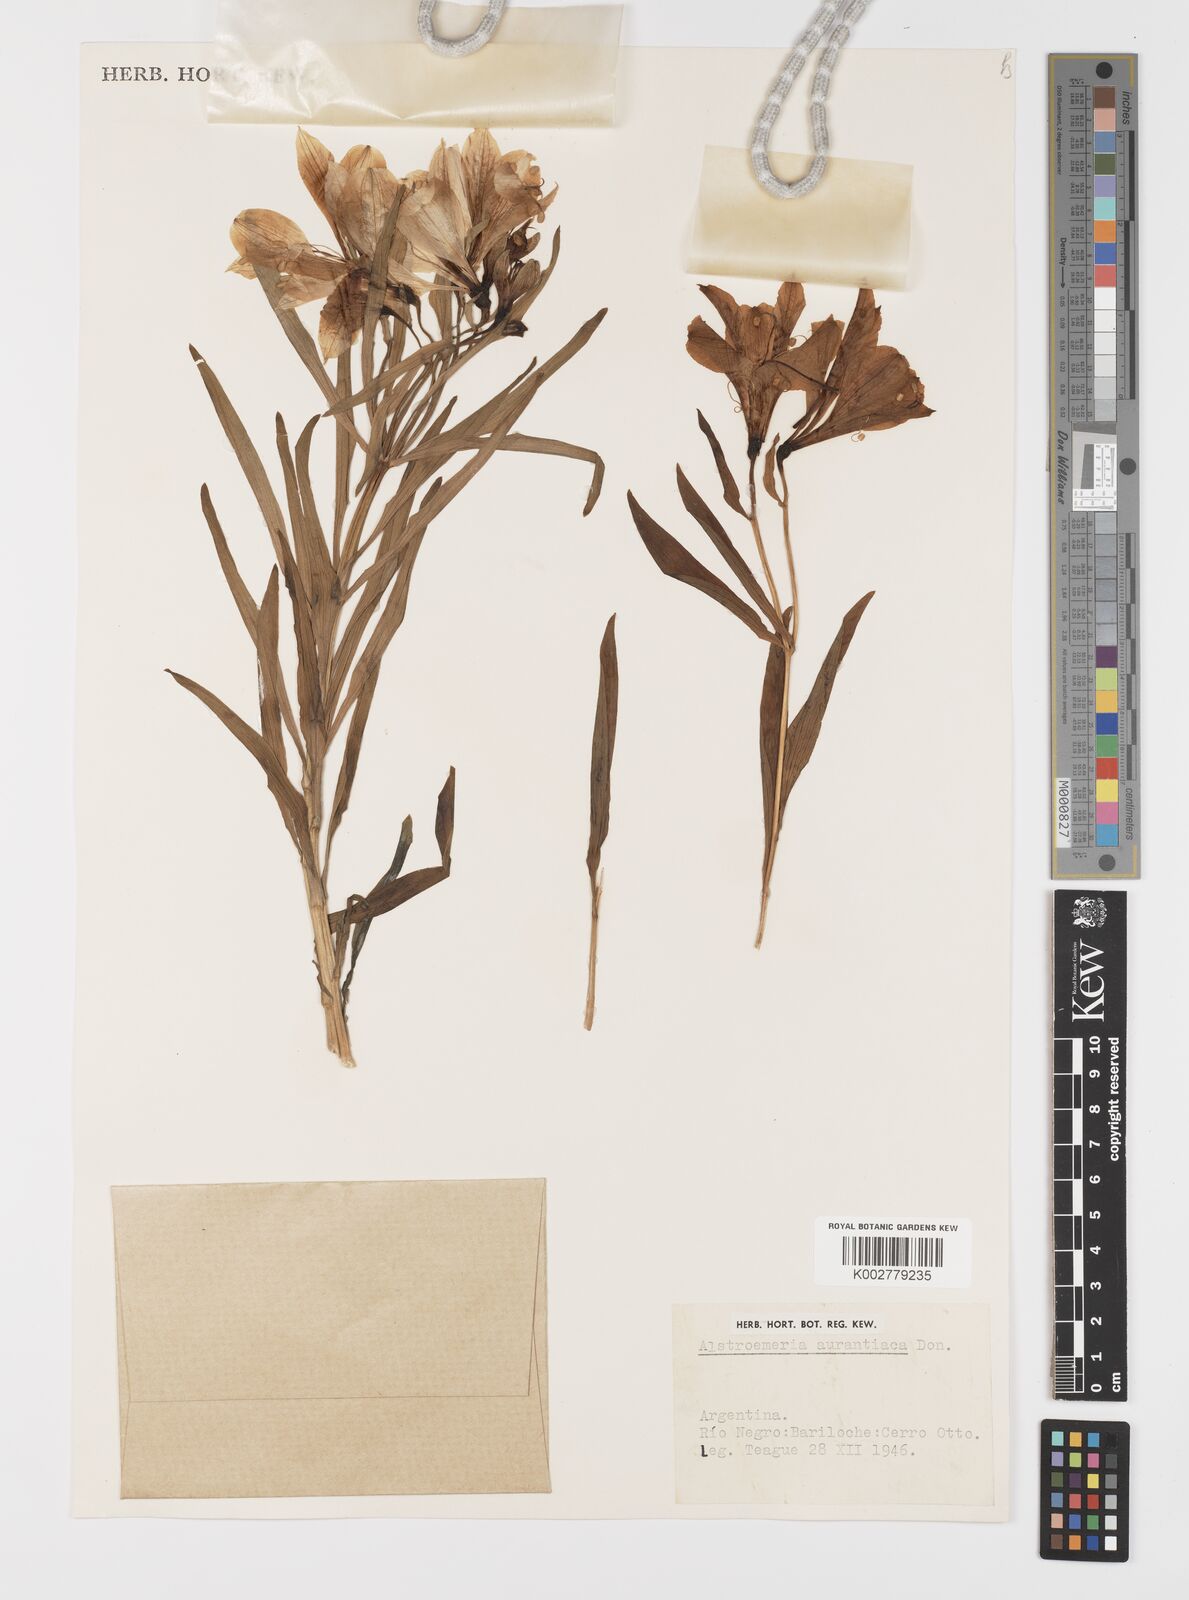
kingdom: Plantae
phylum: Tracheophyta
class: Liliopsida
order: Liliales
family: Alstroemeriaceae
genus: Alstroemeria
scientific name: Alstroemeria aurea
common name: Peruvian lily
